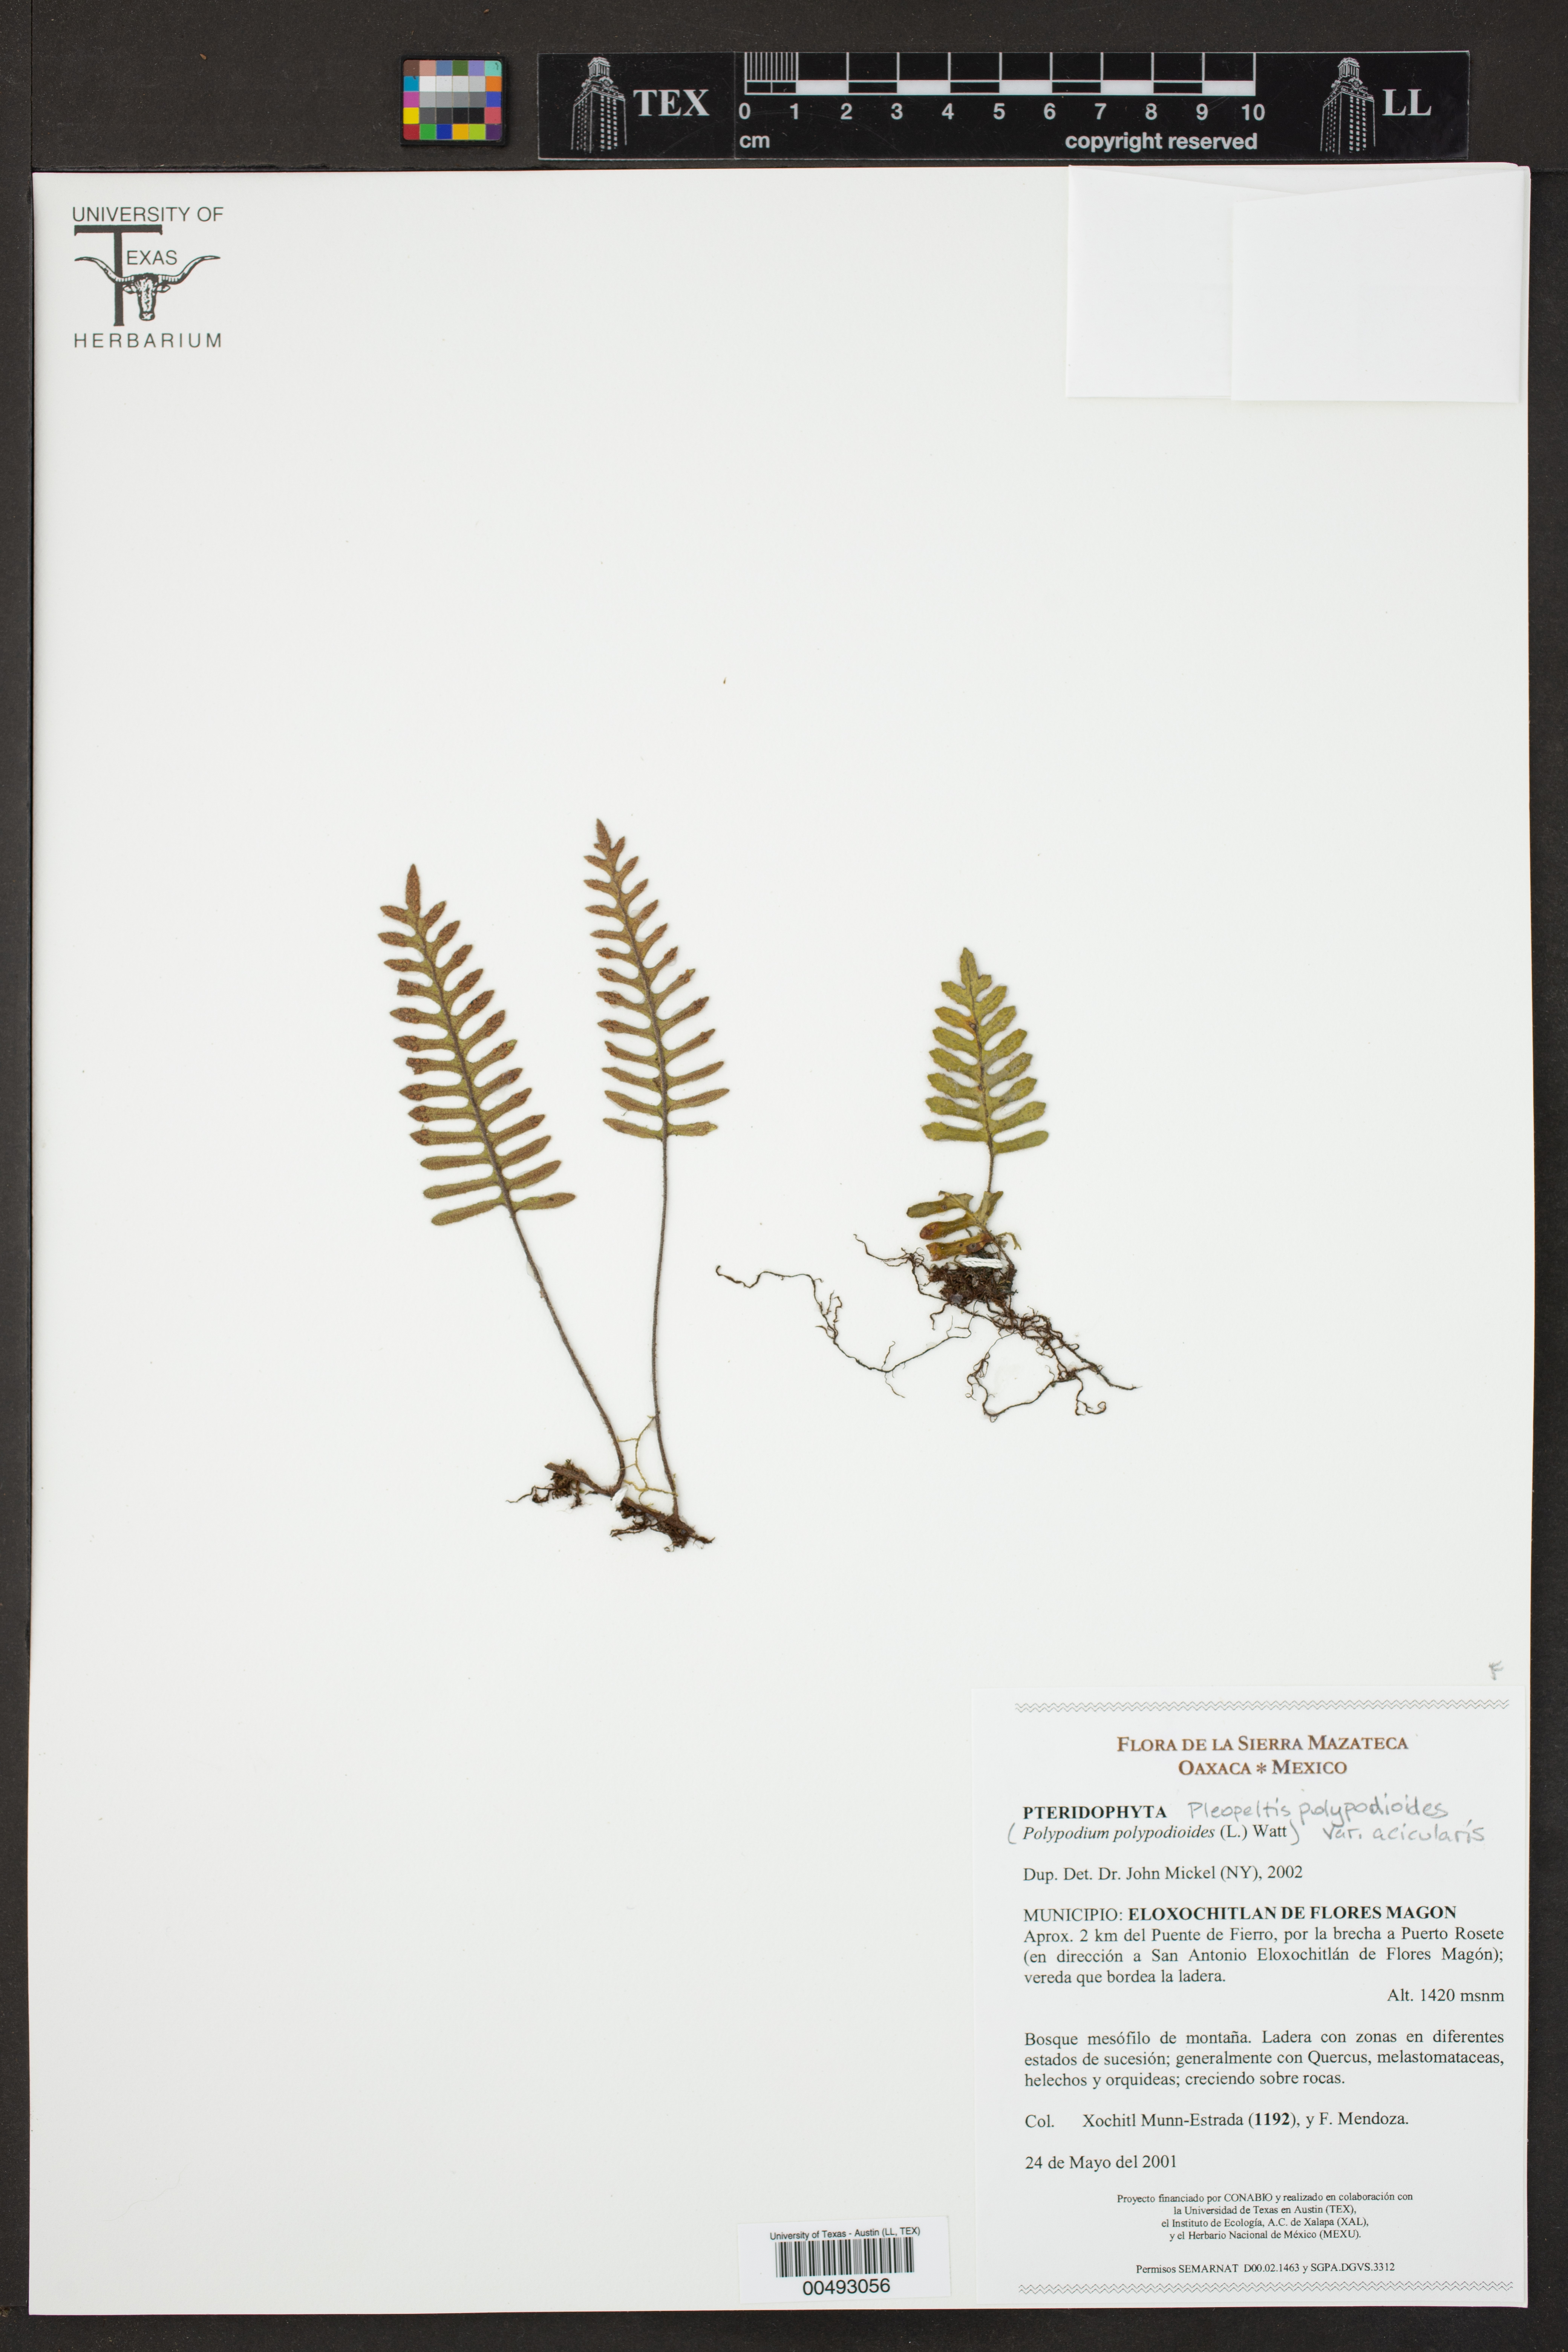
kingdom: Plantae
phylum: Tracheophyta
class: Polypodiopsida
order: Polypodiales
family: Polypodiaceae
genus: Pleopeltis
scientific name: Pleopeltis acicularis
